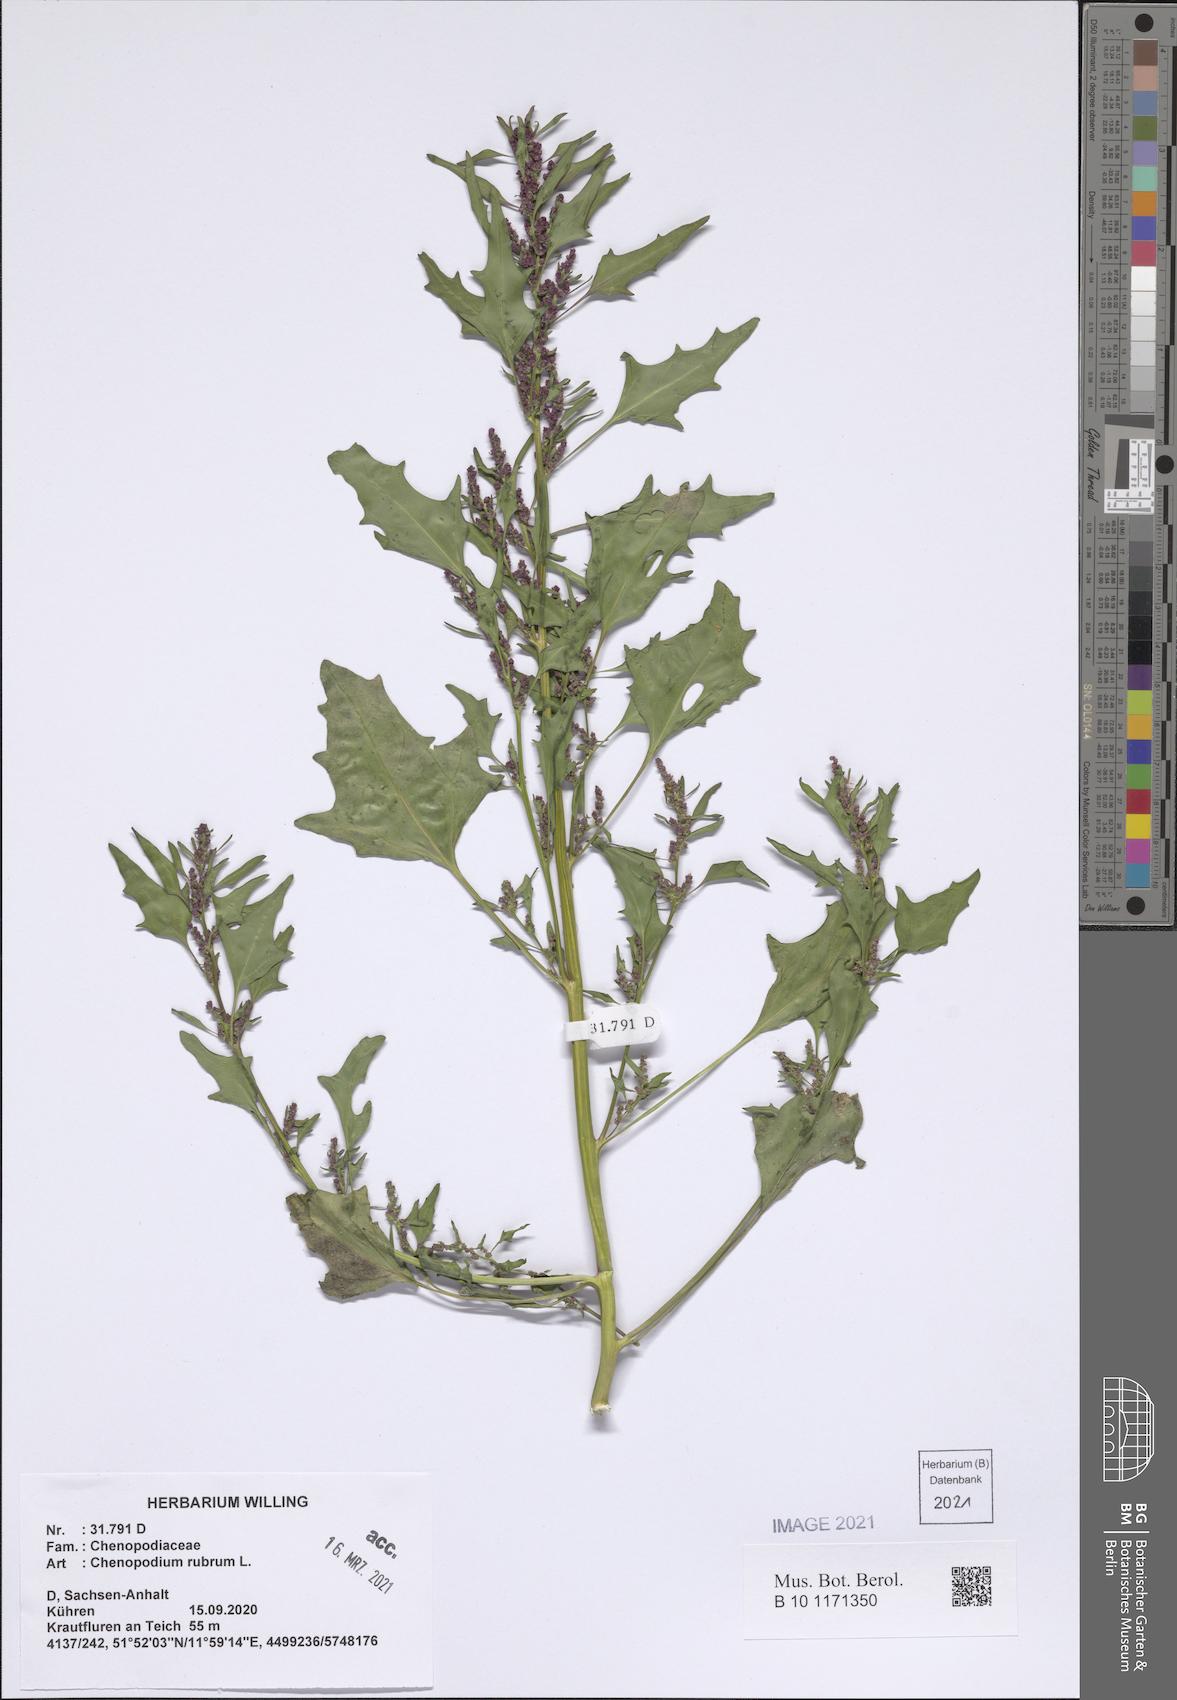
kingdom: Plantae
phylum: Tracheophyta
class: Magnoliopsida
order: Caryophyllales
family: Amaranthaceae
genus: Oxybasis
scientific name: Oxybasis rubra
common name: Red goosefoot
